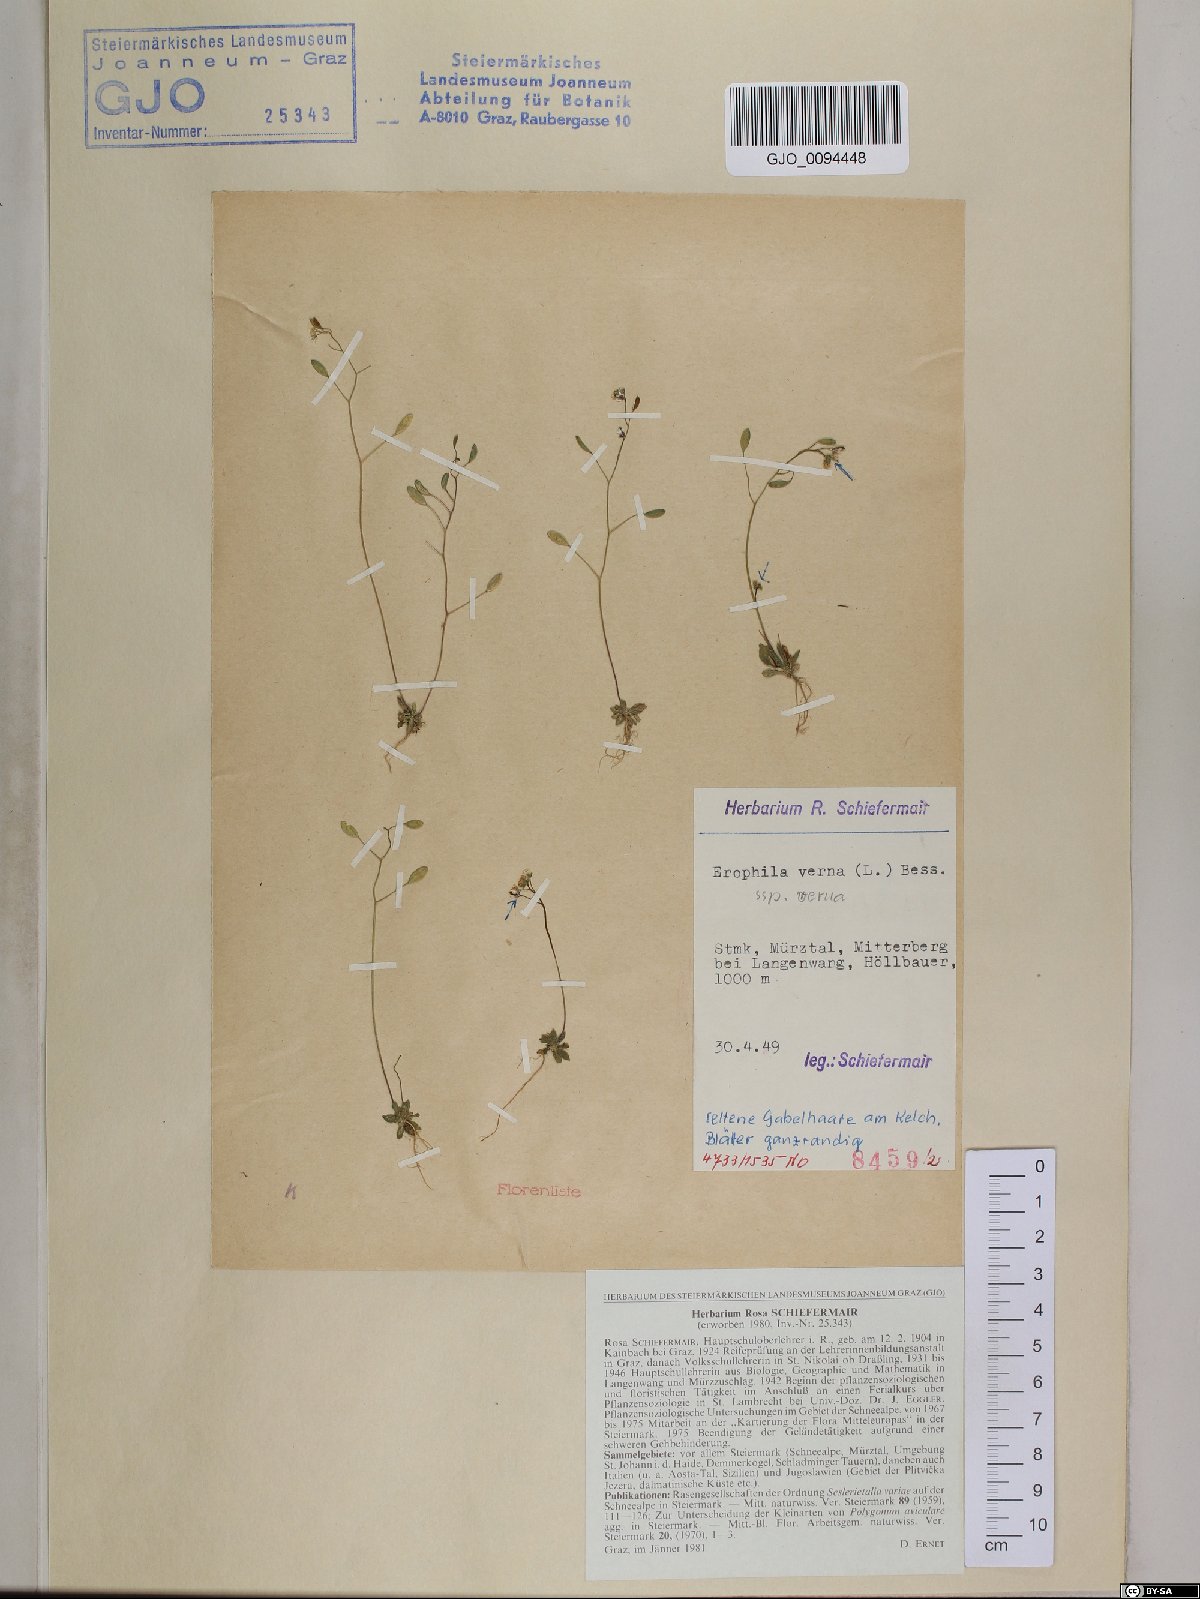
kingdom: Plantae
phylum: Tracheophyta
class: Magnoliopsida
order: Brassicales
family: Brassicaceae
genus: Draba
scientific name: Draba verna
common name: Spring draba
